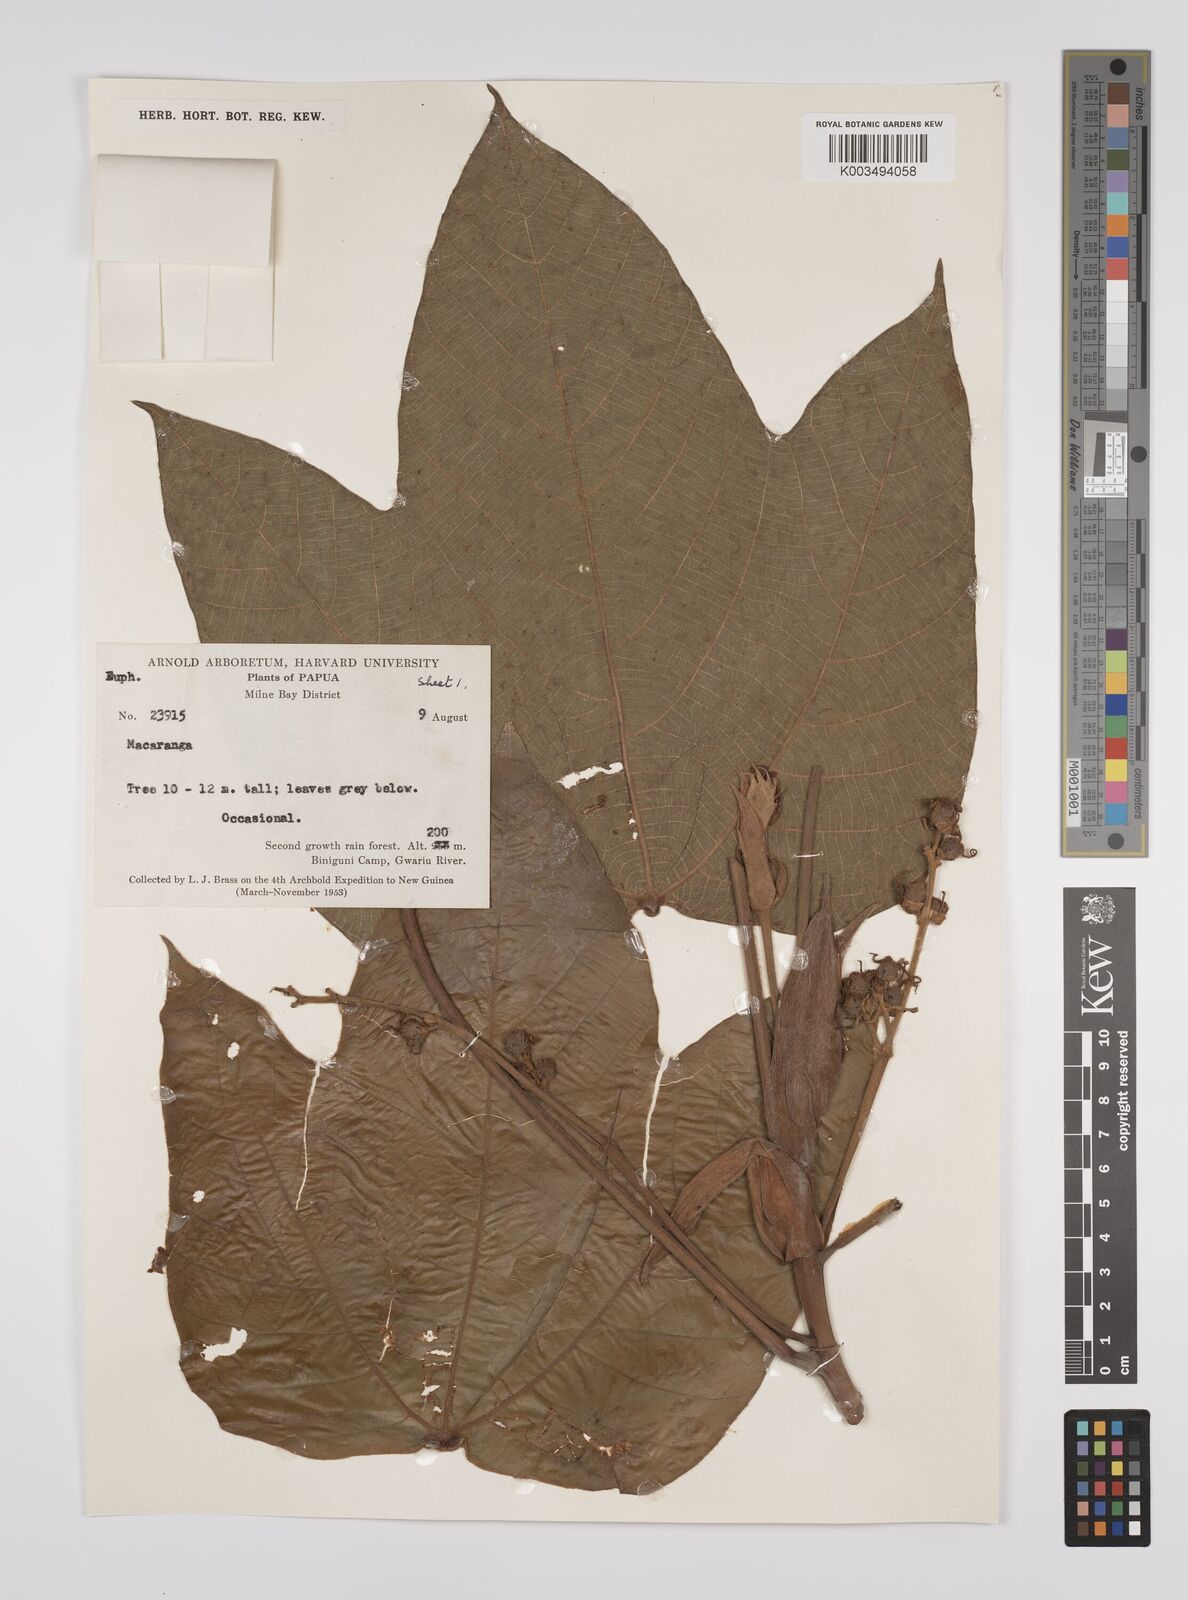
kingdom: Plantae
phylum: Tracheophyta
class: Magnoliopsida
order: Malpighiales
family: Euphorbiaceae
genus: Macaranga
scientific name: Macaranga aleuritoides
